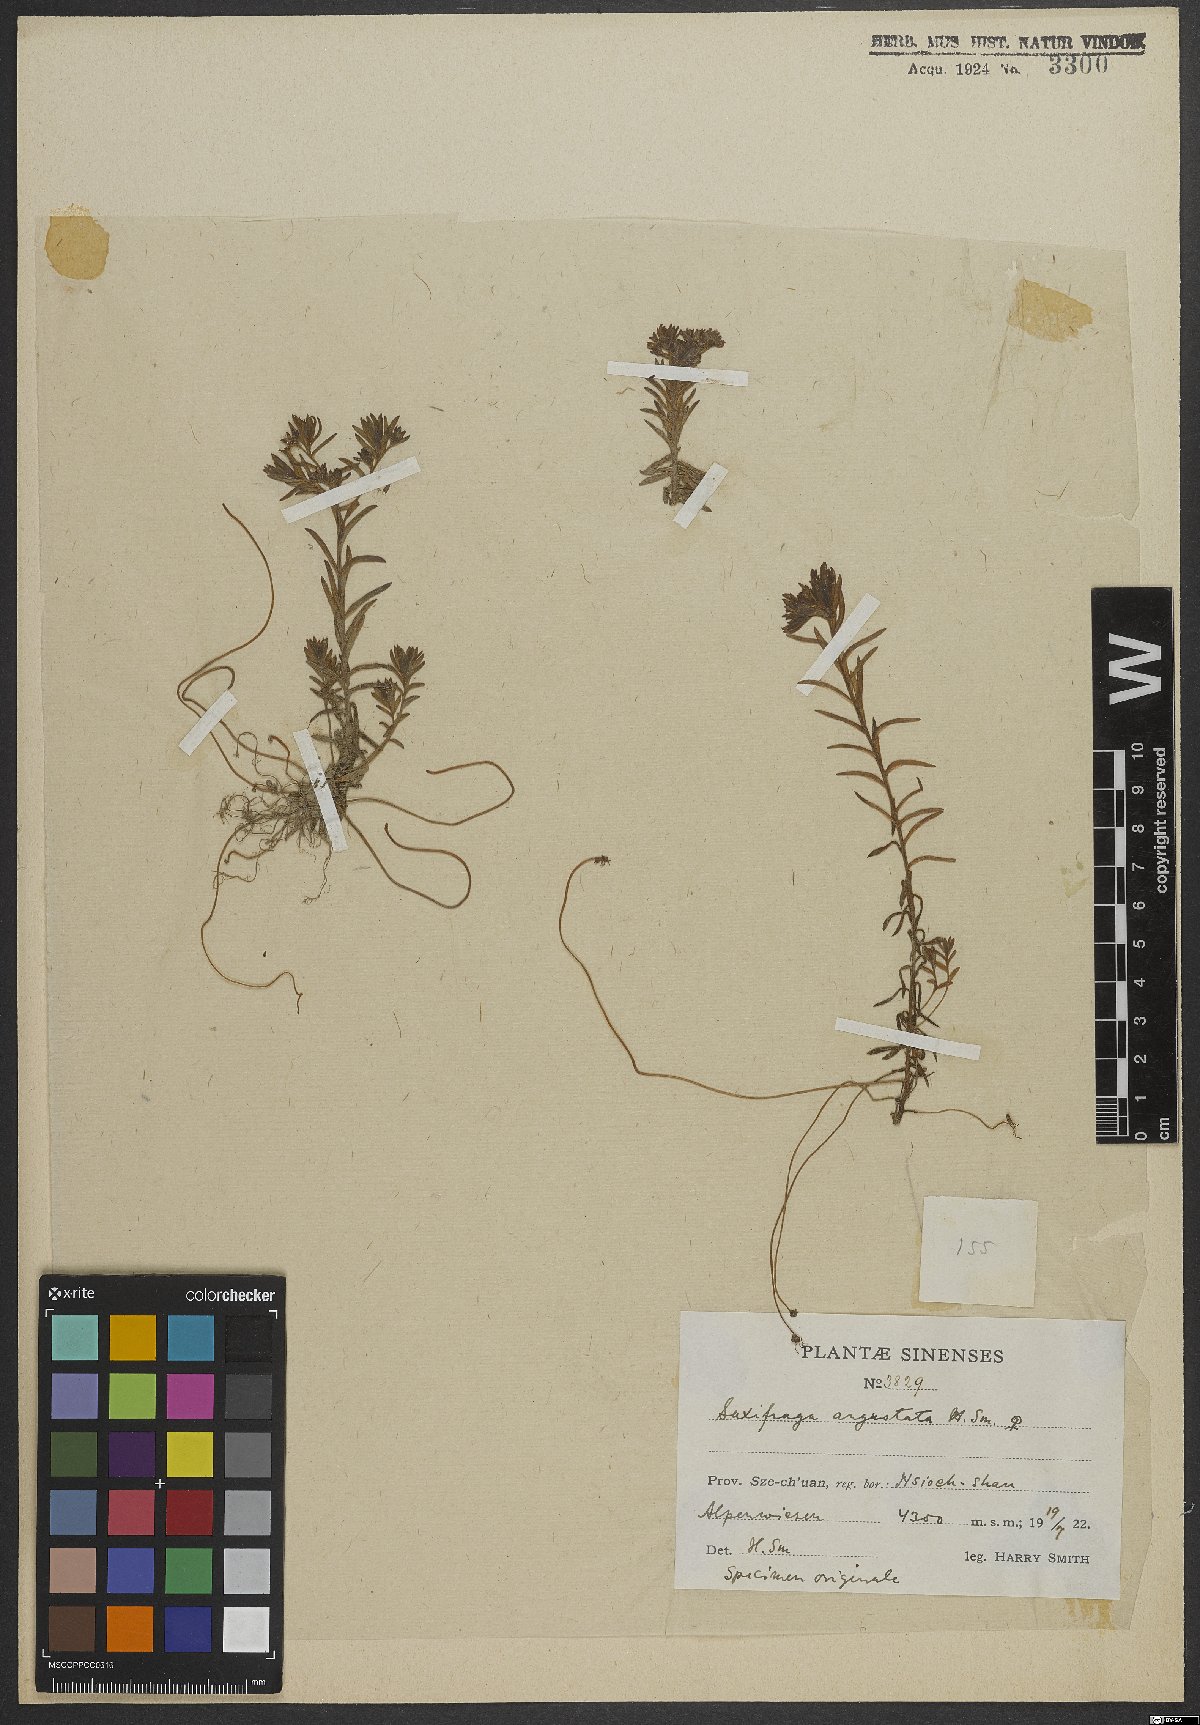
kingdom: Plantae
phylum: Tracheophyta
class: Magnoliopsida
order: Saxifragales
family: Saxifragaceae
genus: Saxifraga
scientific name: Saxifraga angustata
